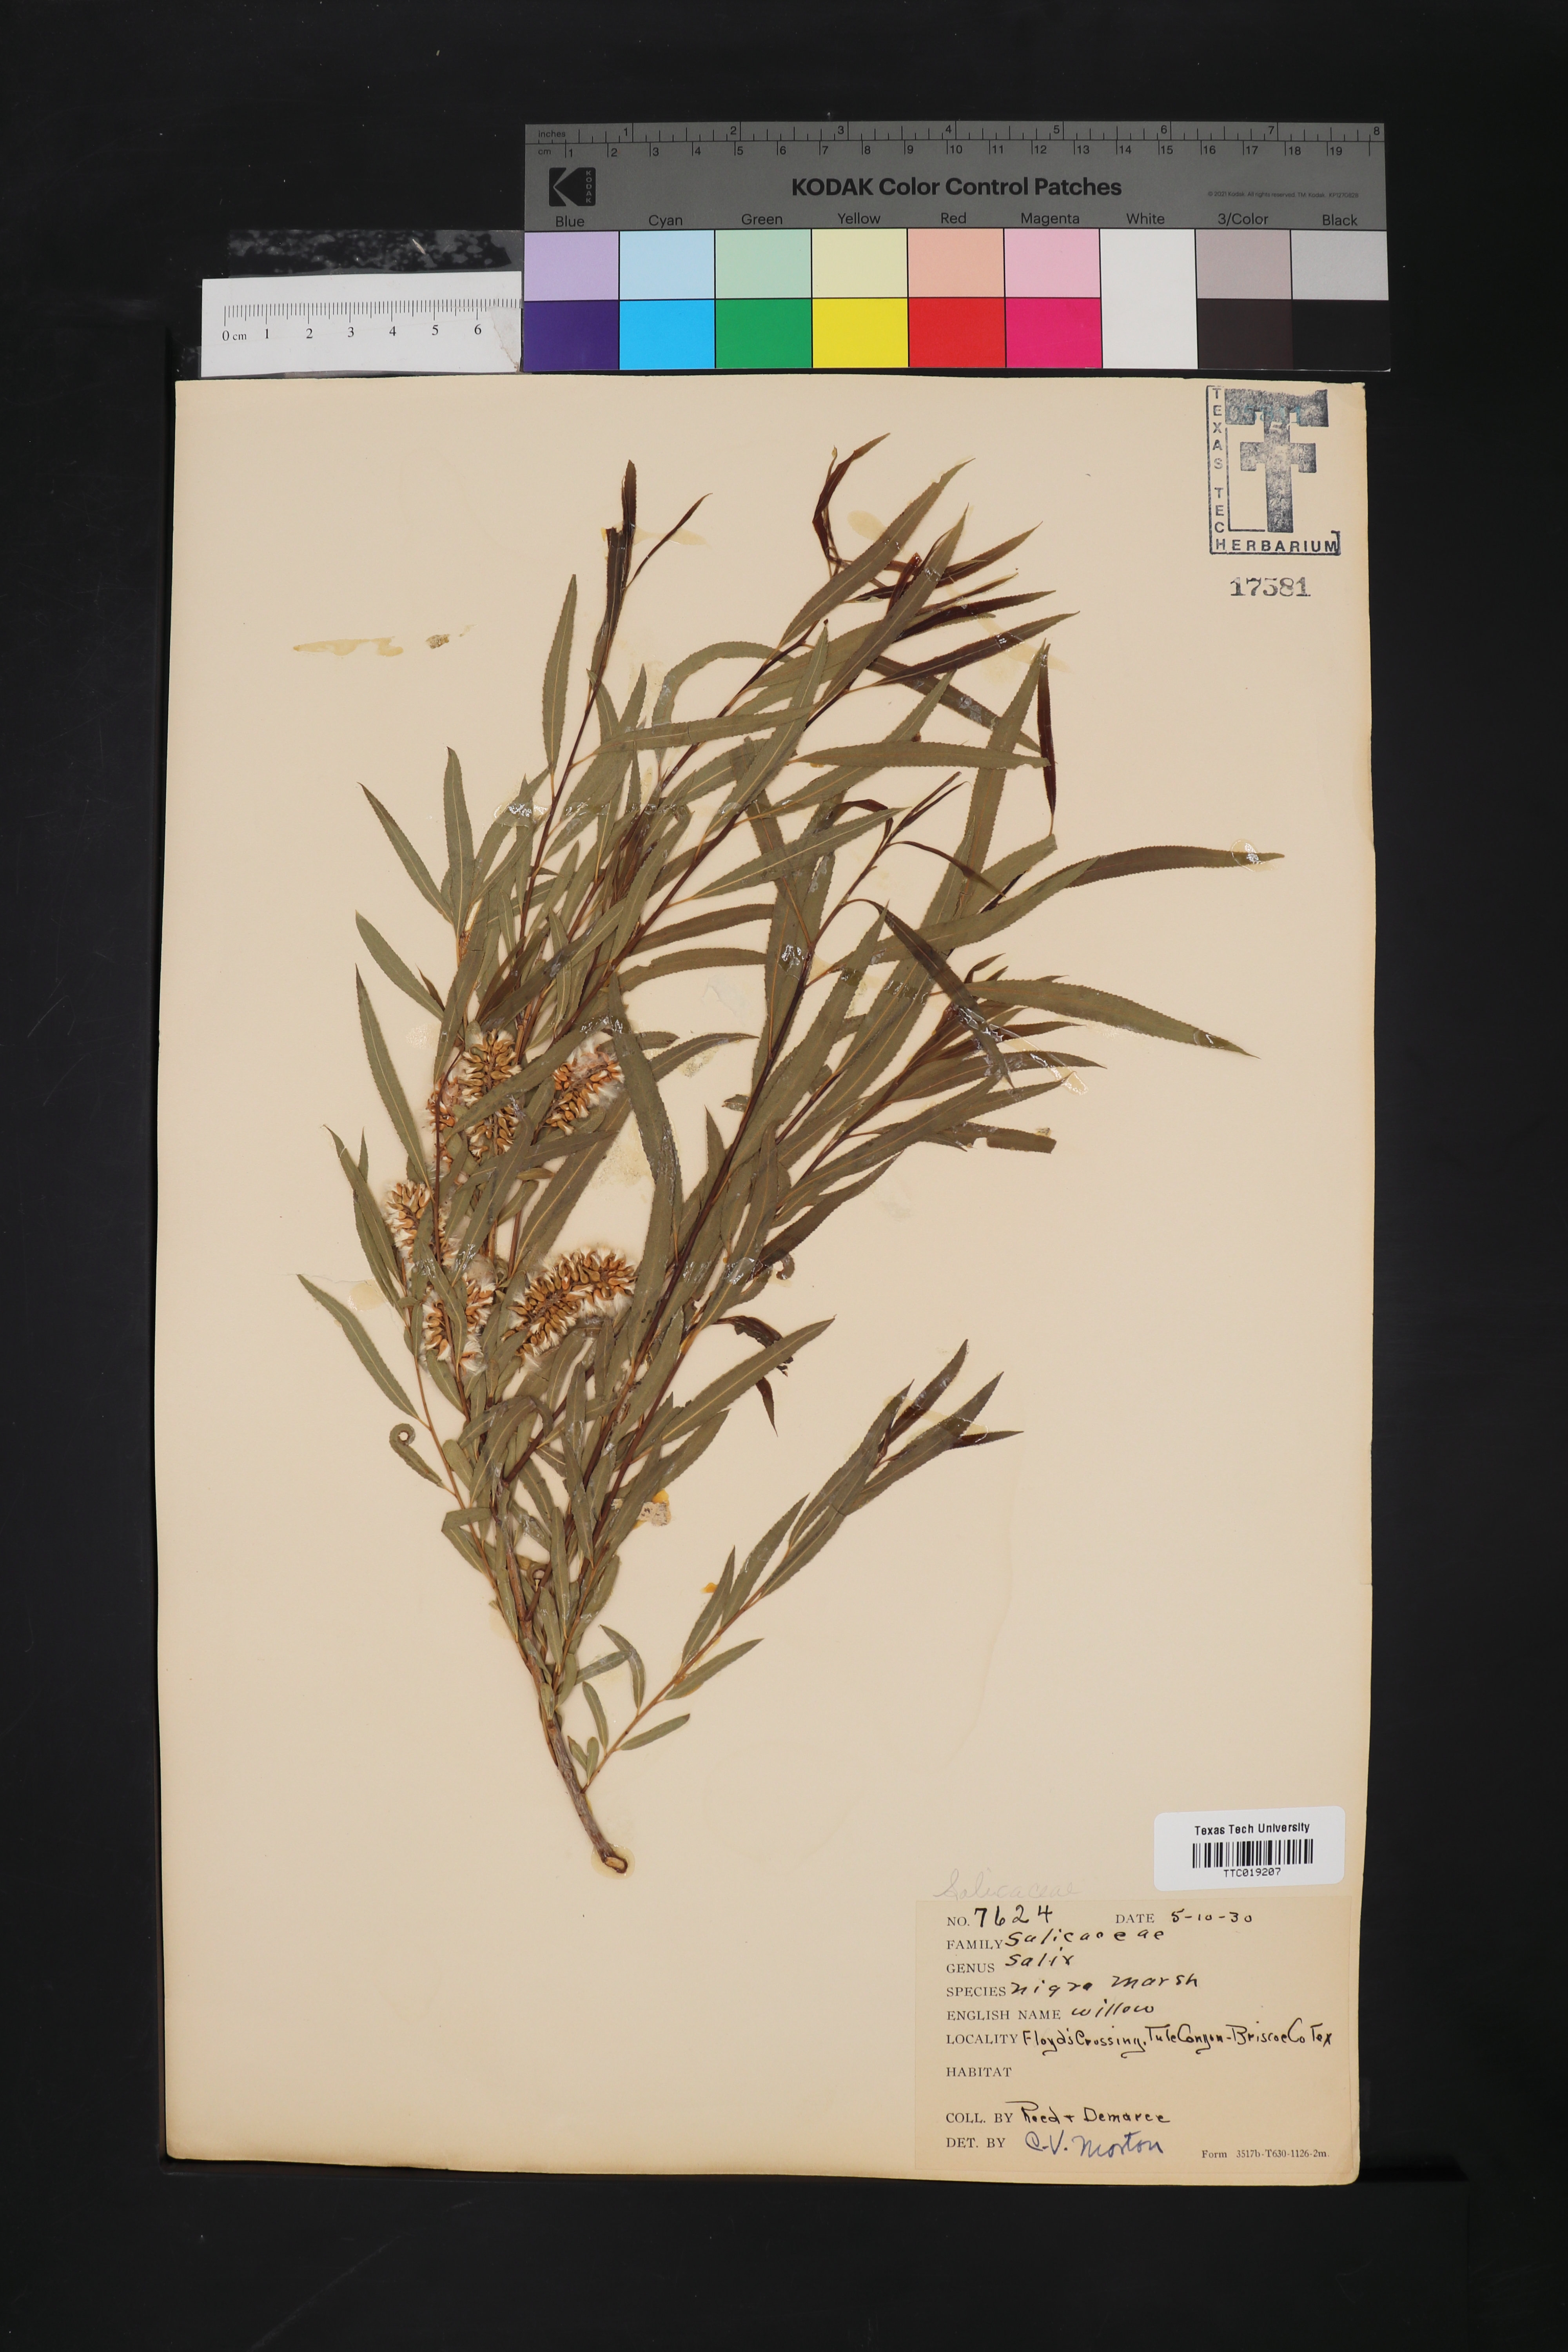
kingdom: Plantae
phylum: Tracheophyta
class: Magnoliopsida
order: Malpighiales
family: Salicaceae
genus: Salix
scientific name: Salix nigra
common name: Black willow
